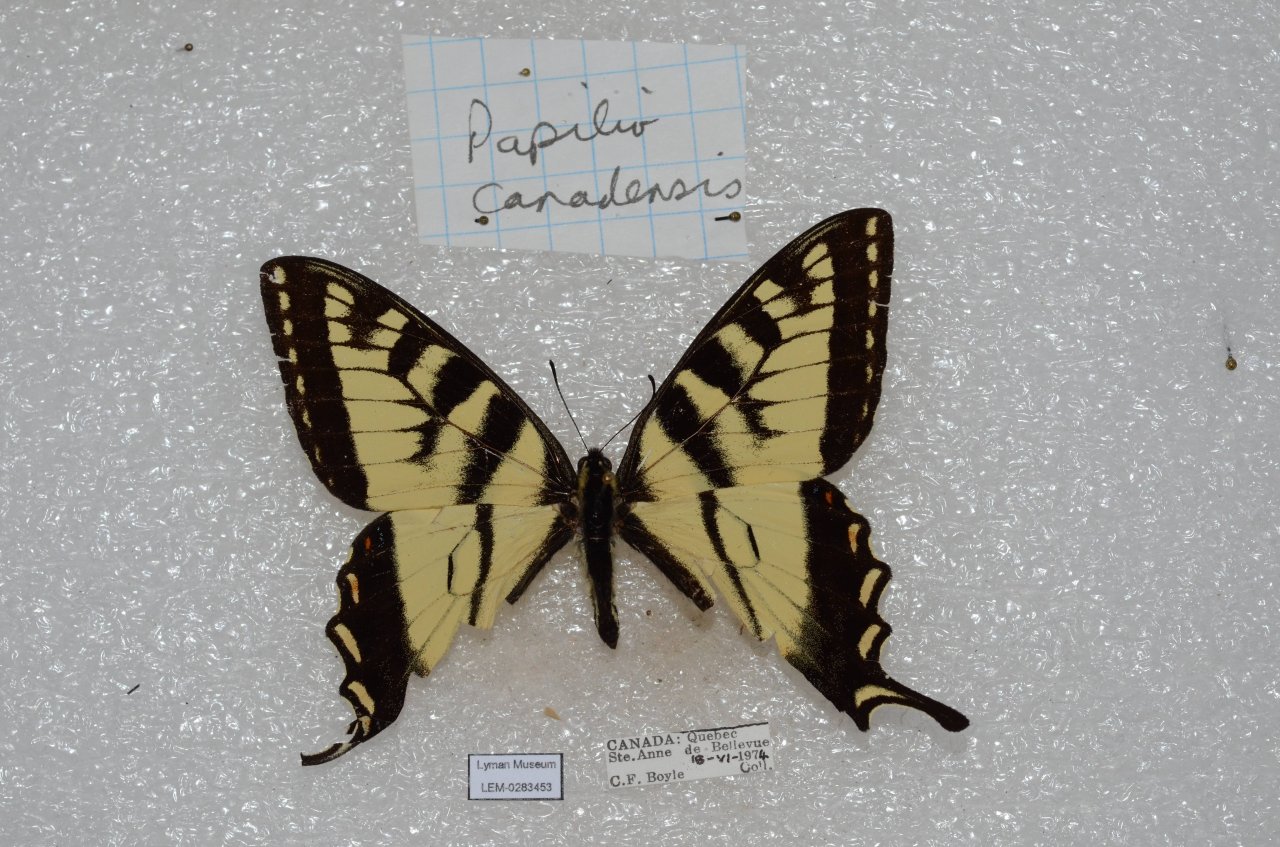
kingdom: Animalia
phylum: Arthropoda
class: Insecta
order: Lepidoptera
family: Papilionidae
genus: Pterourus
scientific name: Pterourus canadensis
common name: Canadian Tiger Swallowtail
